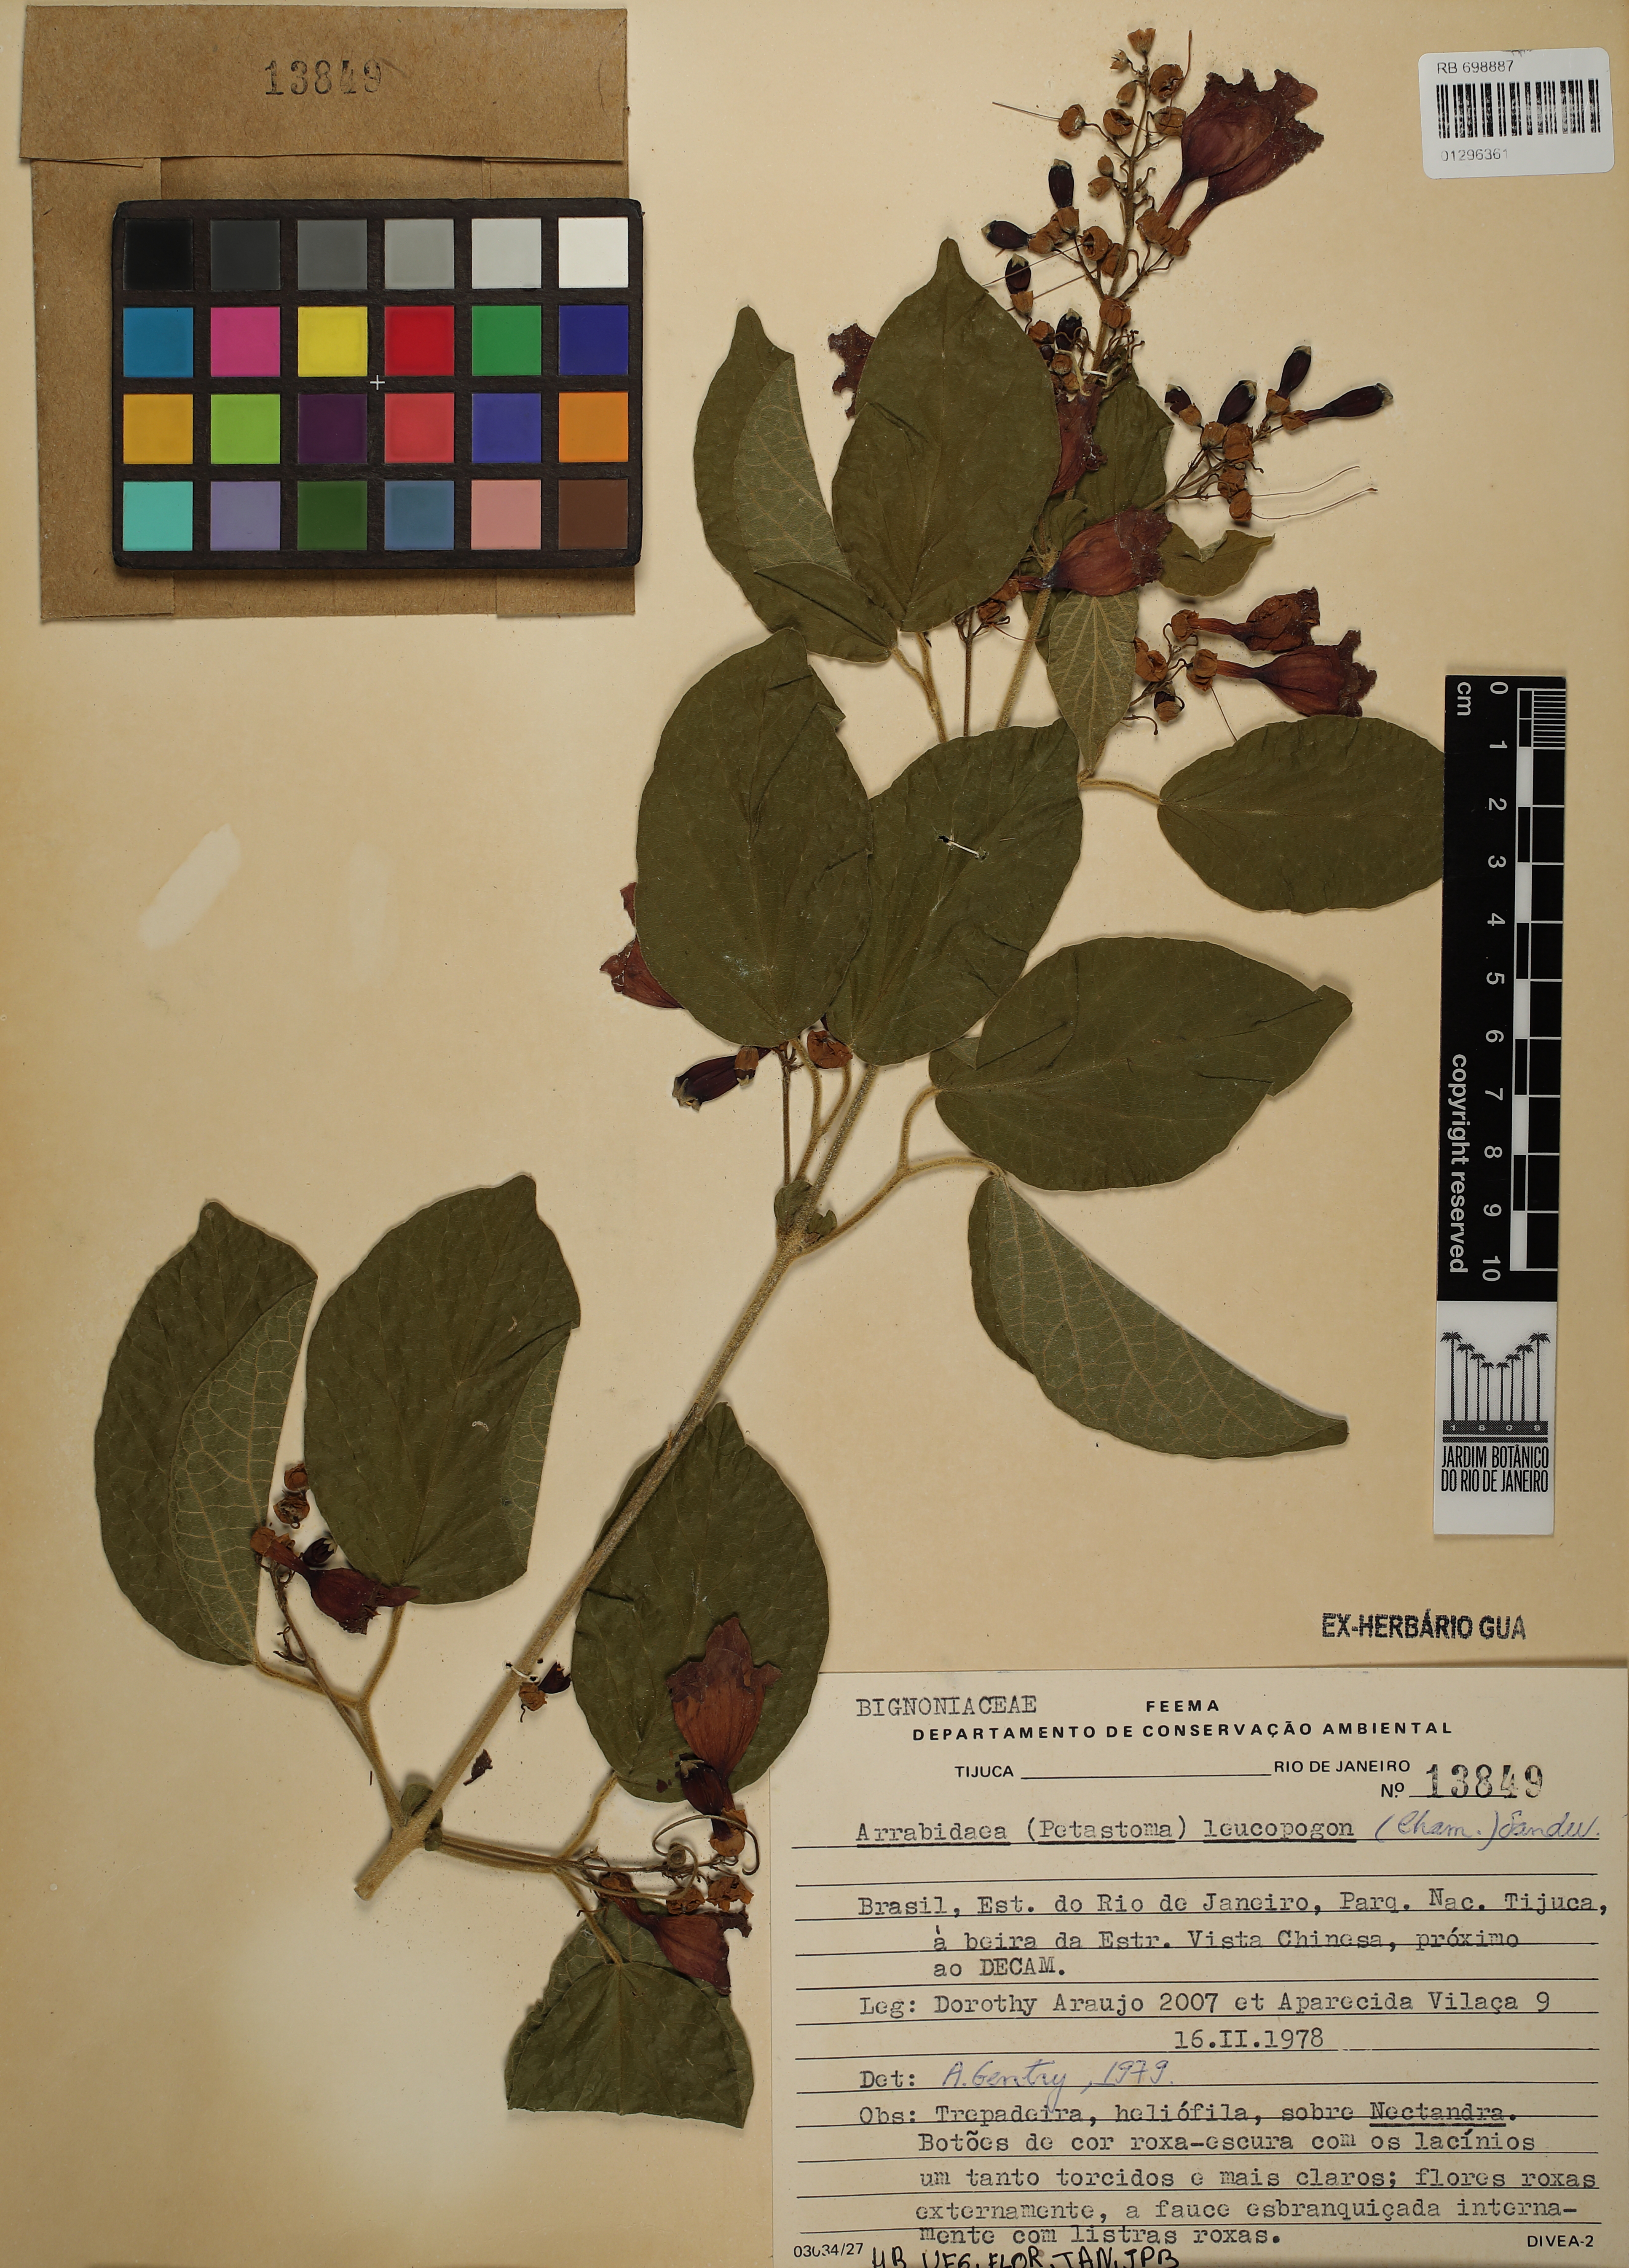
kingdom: Plantae
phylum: Tracheophyta
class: Magnoliopsida
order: Lamiales
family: Bignoniaceae
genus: Fridericia
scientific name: Fridericia leucopogon
